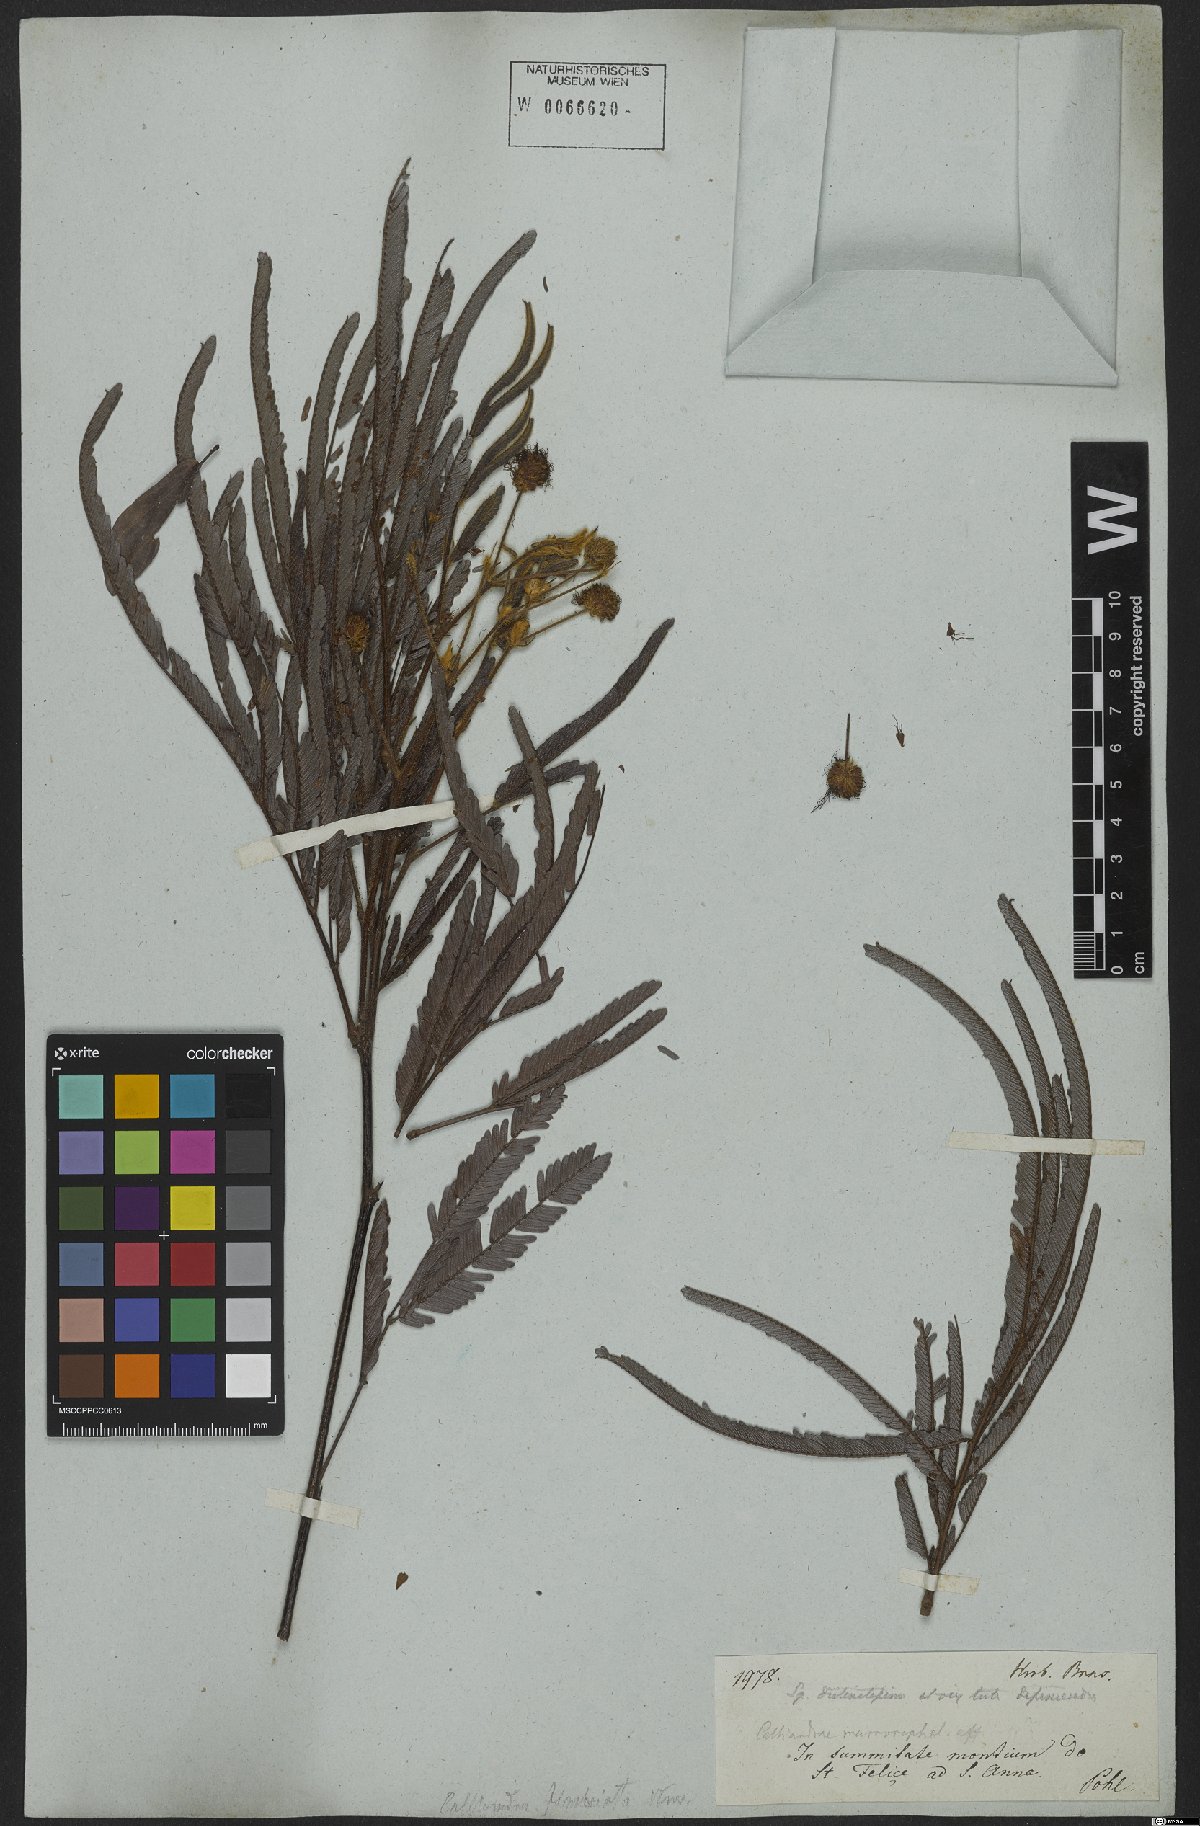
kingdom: Plantae
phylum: Tracheophyta
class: Magnoliopsida
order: Fabales
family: Fabaceae
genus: Calliandra
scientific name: Calliandra
